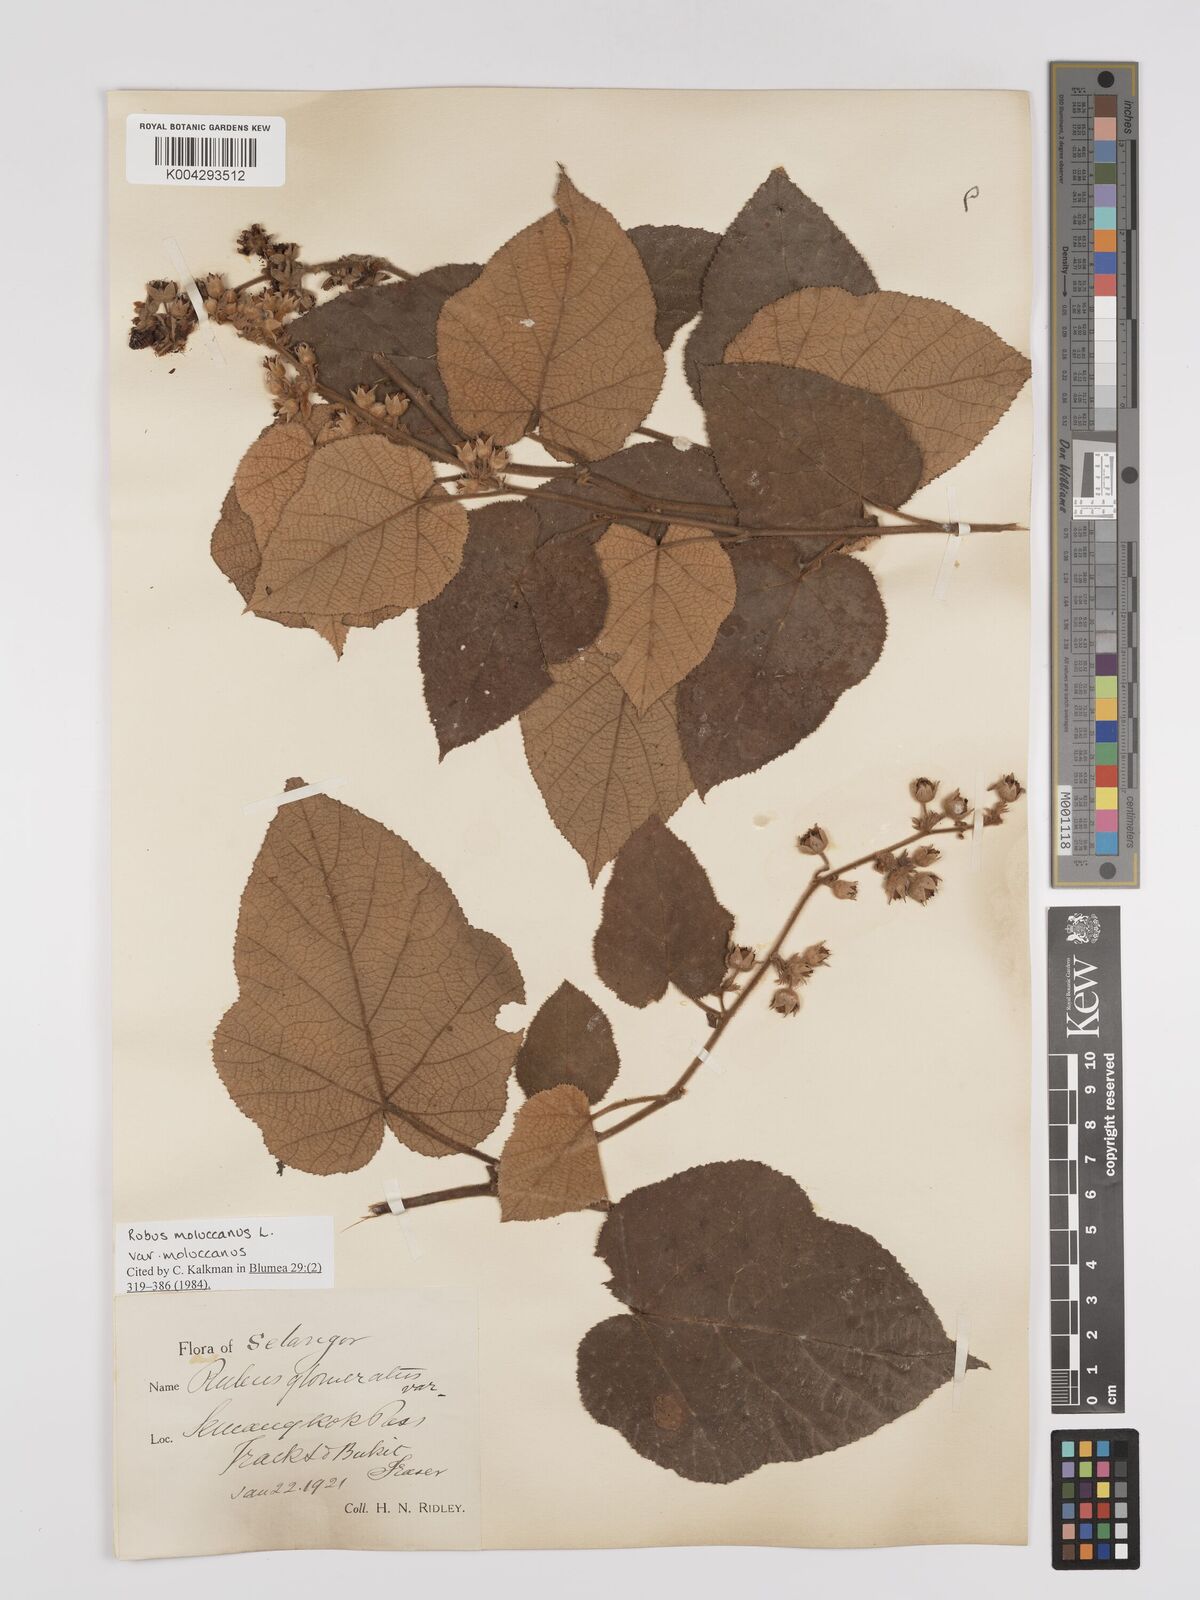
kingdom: Plantae
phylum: Tracheophyta
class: Magnoliopsida
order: Rosales
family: Rosaceae
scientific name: Rosaceae
